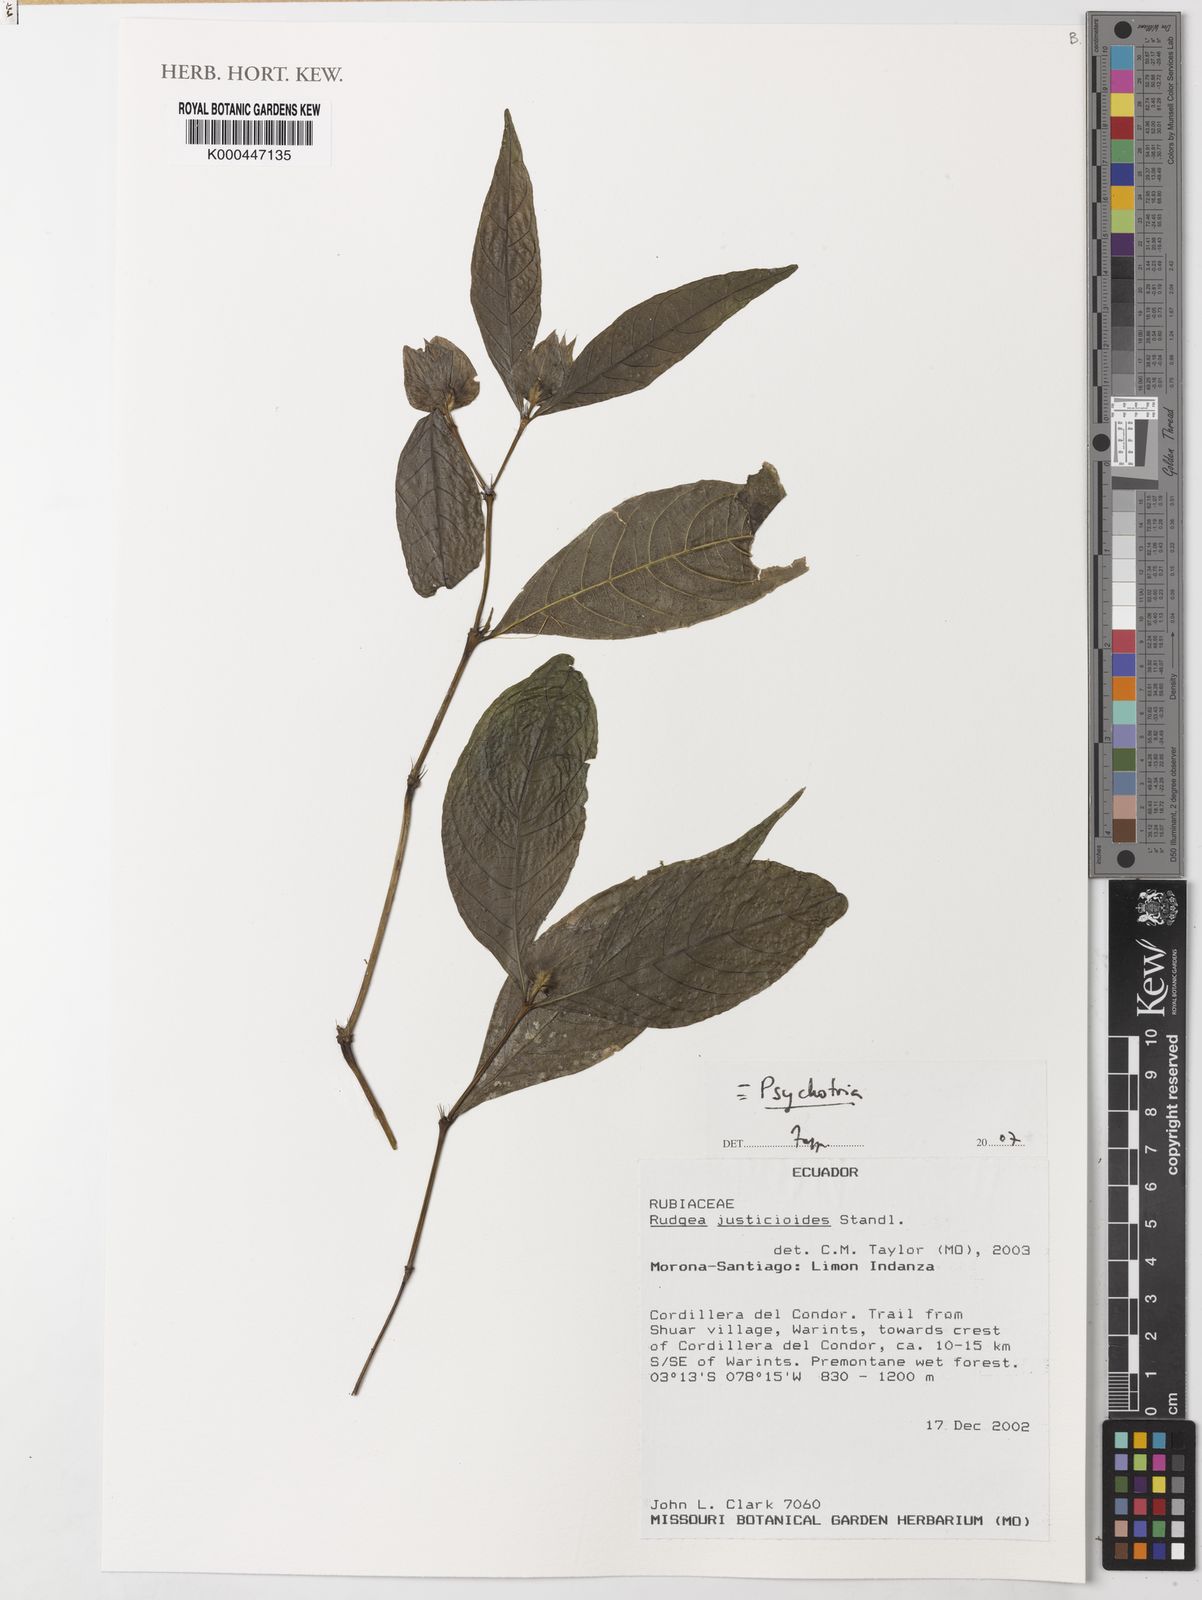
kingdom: Plantae
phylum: Tracheophyta
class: Magnoliopsida
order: Gentianales
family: Rubiaceae
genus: Palicourea
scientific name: Palicourea parajusticioides
